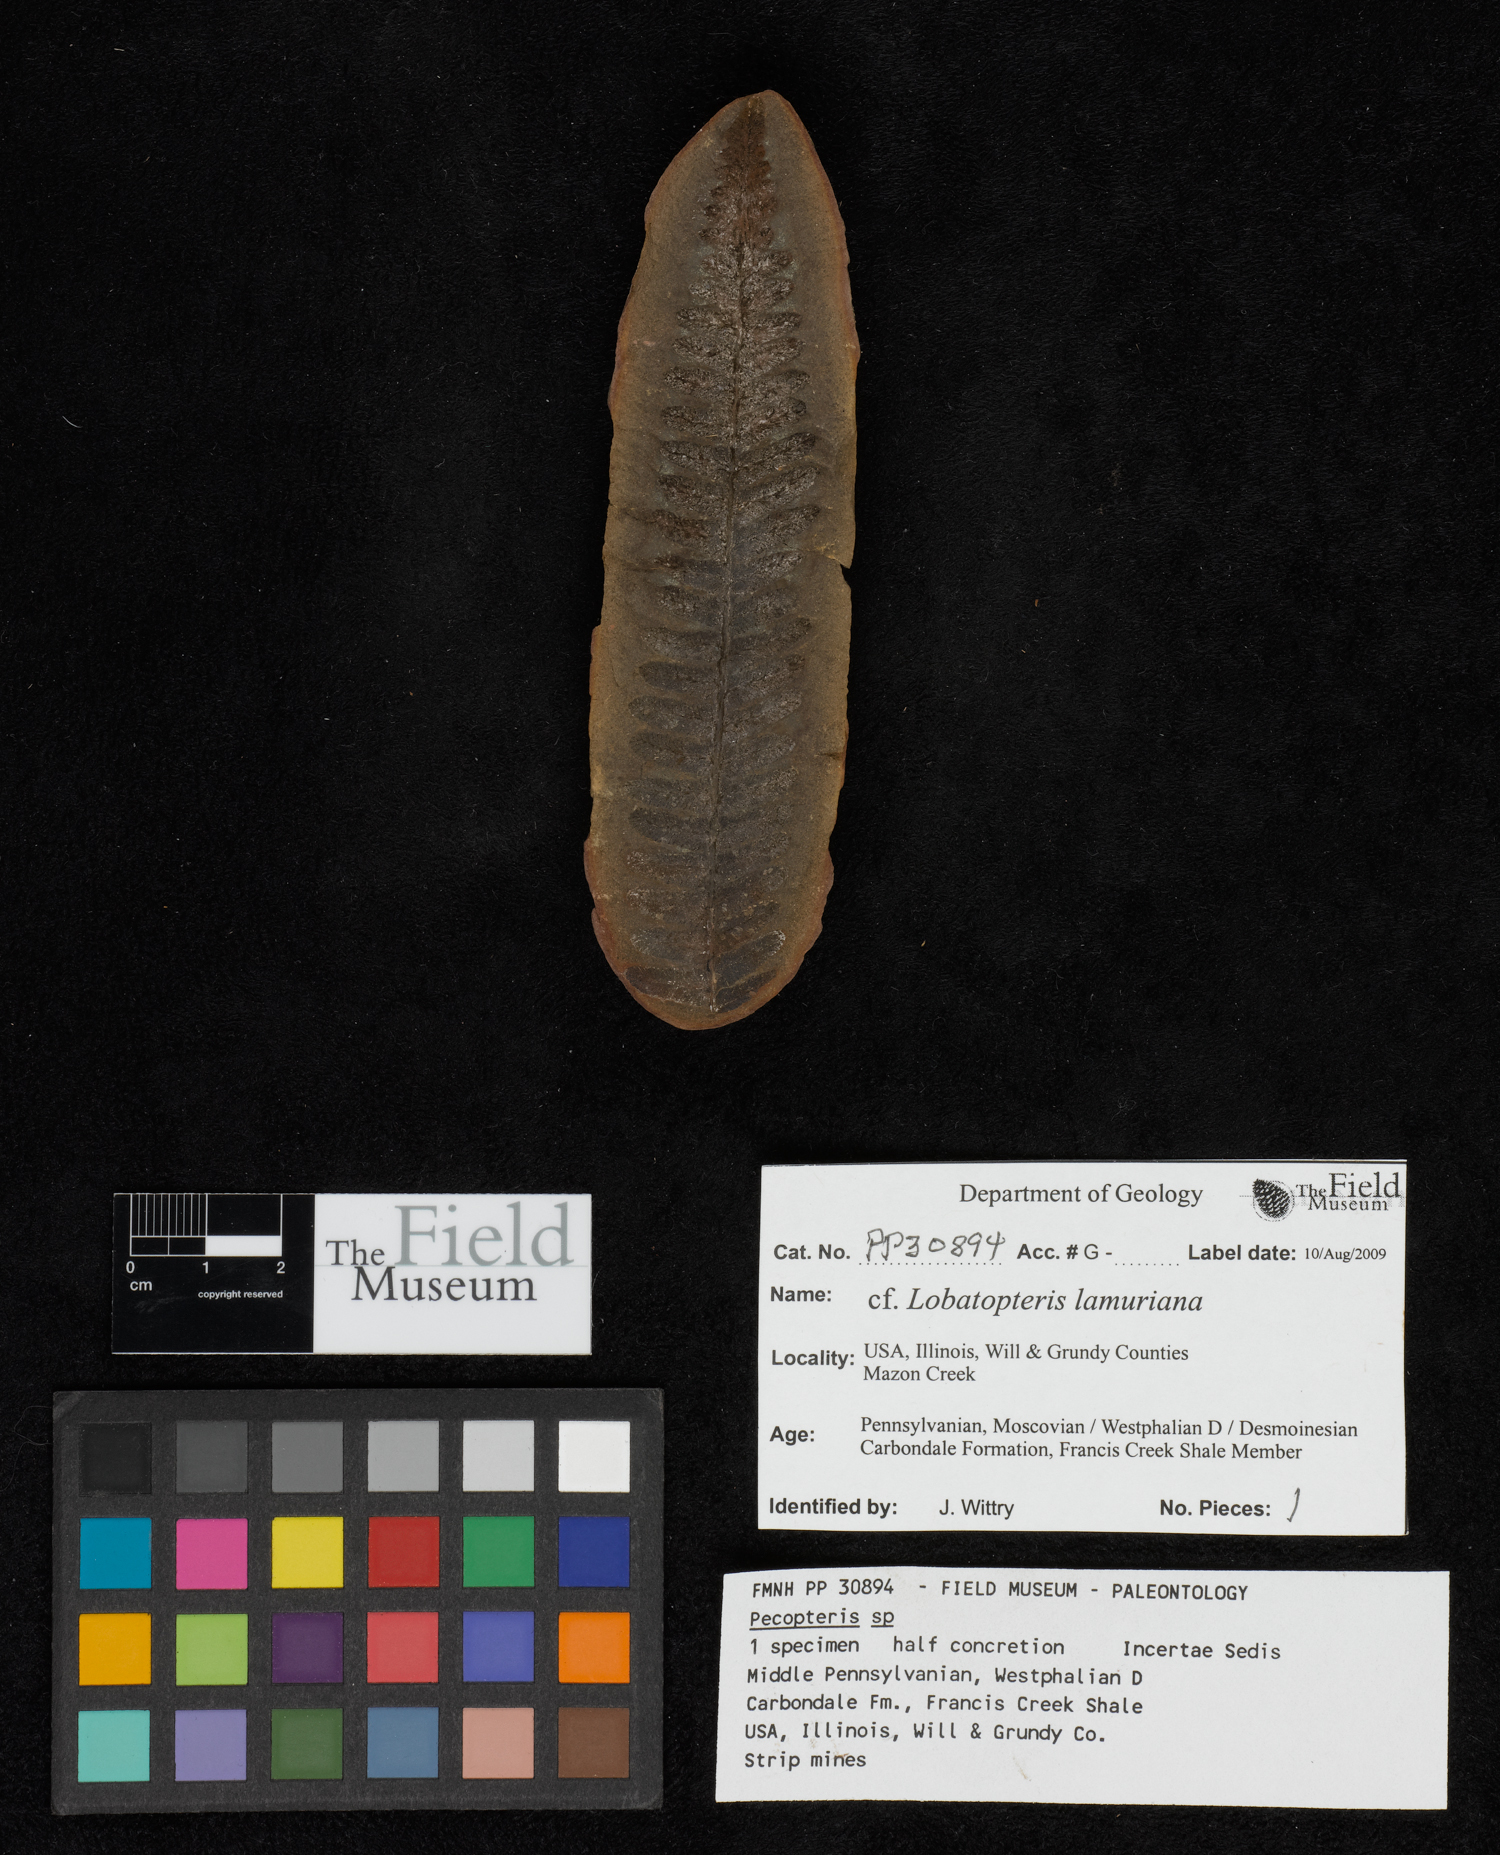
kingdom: Plantae
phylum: Tracheophyta
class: Polypodiopsida
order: Marattiales
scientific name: Marattiales
